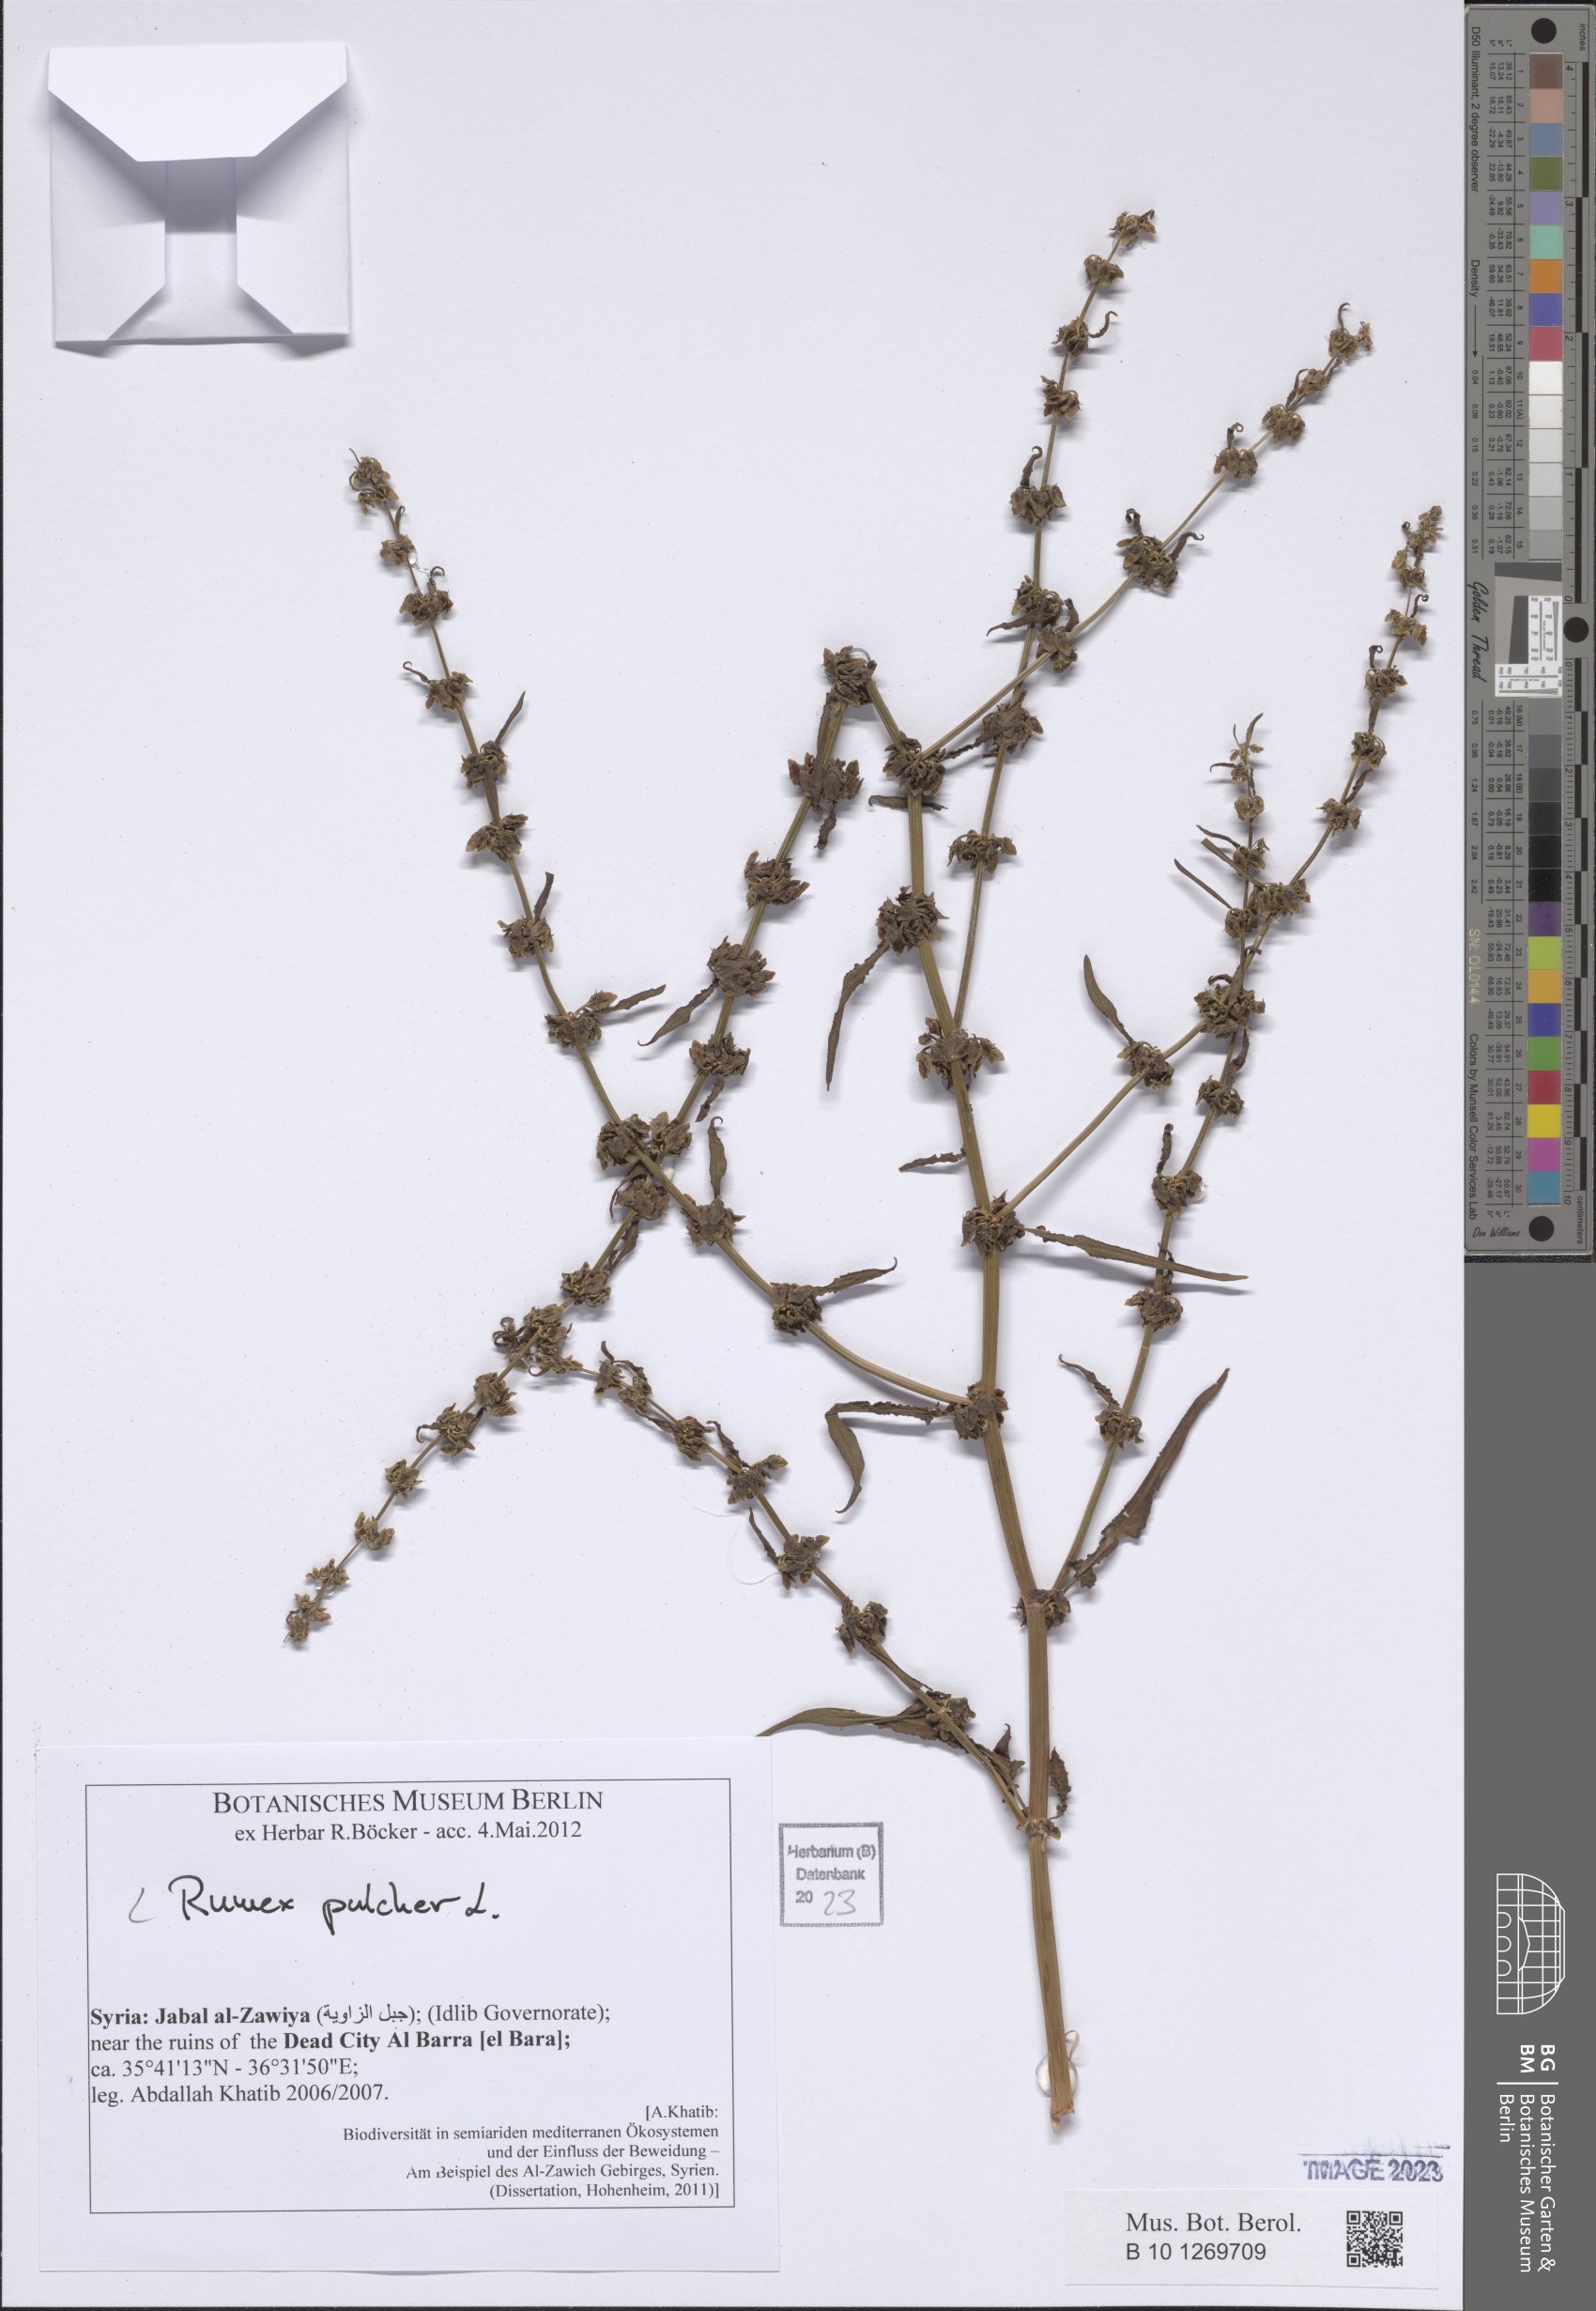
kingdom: Plantae
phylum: Tracheophyta
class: Magnoliopsida
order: Caryophyllales
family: Polygonaceae
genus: Rumex
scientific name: Rumex pulcher
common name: Fiddle dock
